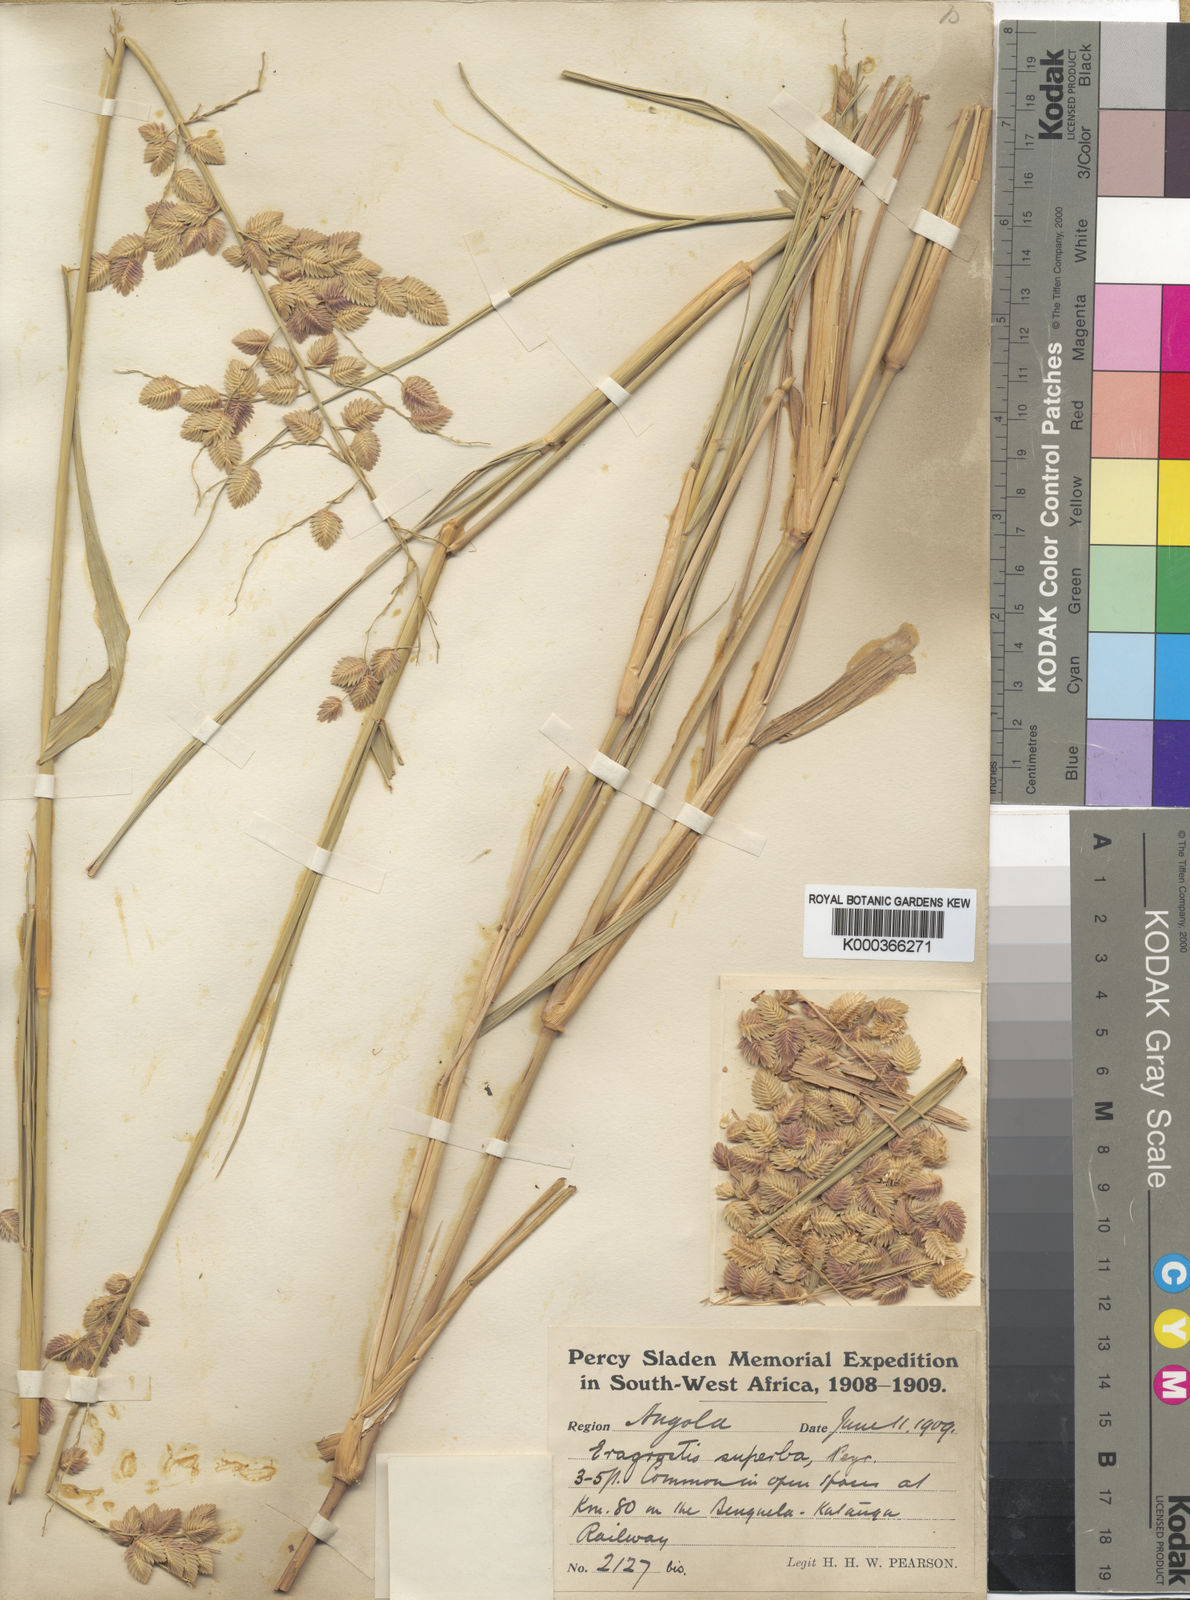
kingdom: Plantae
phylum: Tracheophyta
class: Liliopsida
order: Poales
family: Poaceae
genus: Eragrostis
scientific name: Eragrostis superba
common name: Wilman lovegrass
